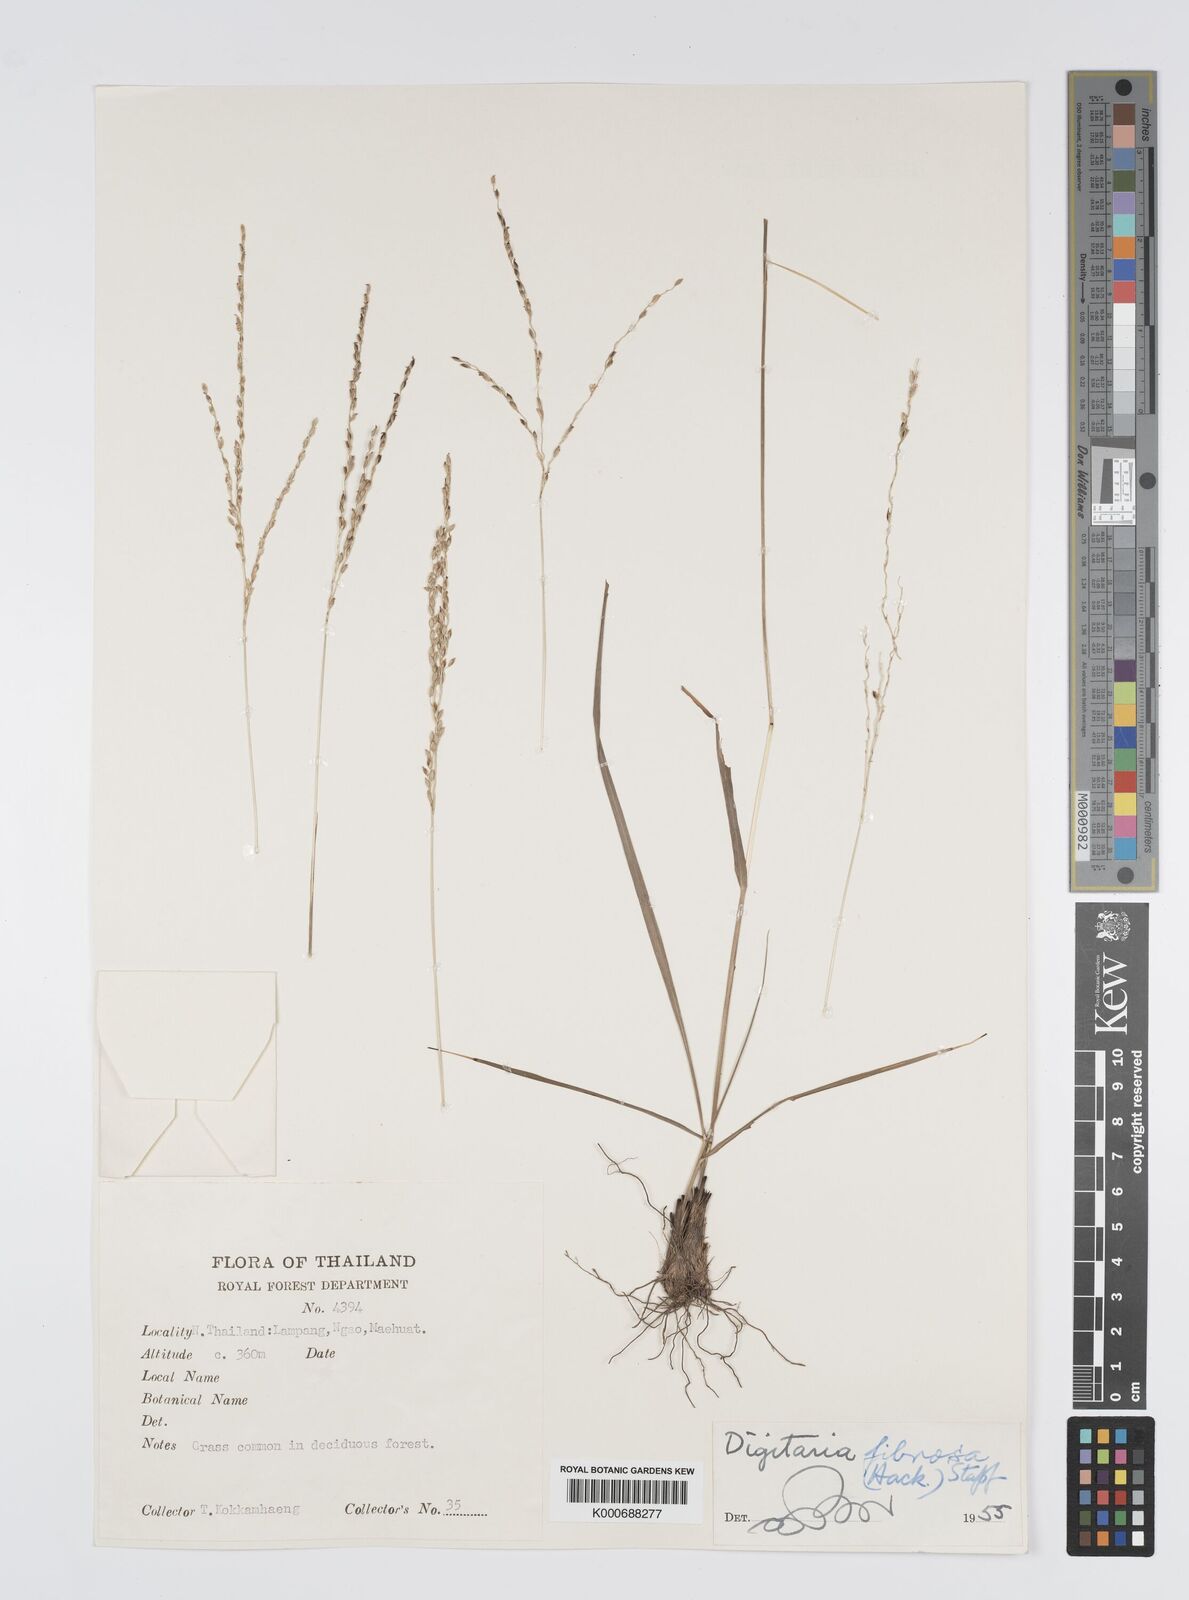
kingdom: Plantae
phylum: Tracheophyta
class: Liliopsida
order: Poales
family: Poaceae
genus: Digitaria
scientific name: Digitaria setifolia
